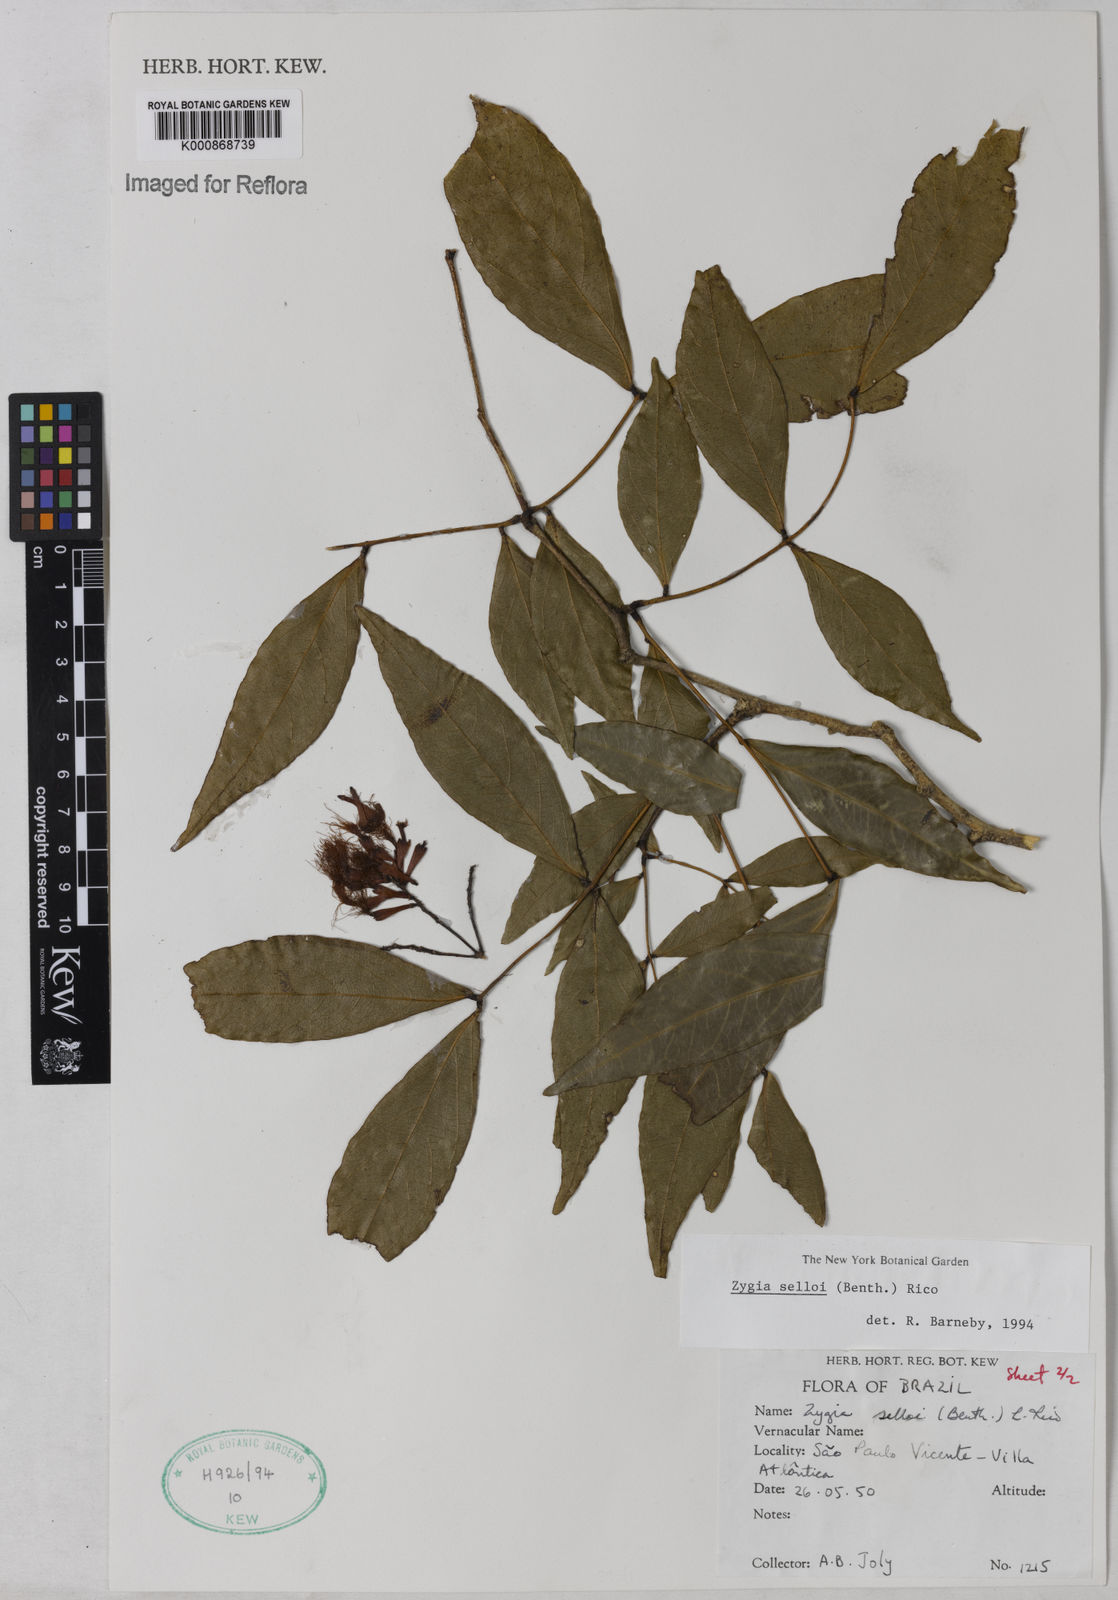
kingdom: Plantae
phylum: Tracheophyta
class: Magnoliopsida
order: Fabales
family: Fabaceae
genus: Zygia
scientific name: Zygia selloi
